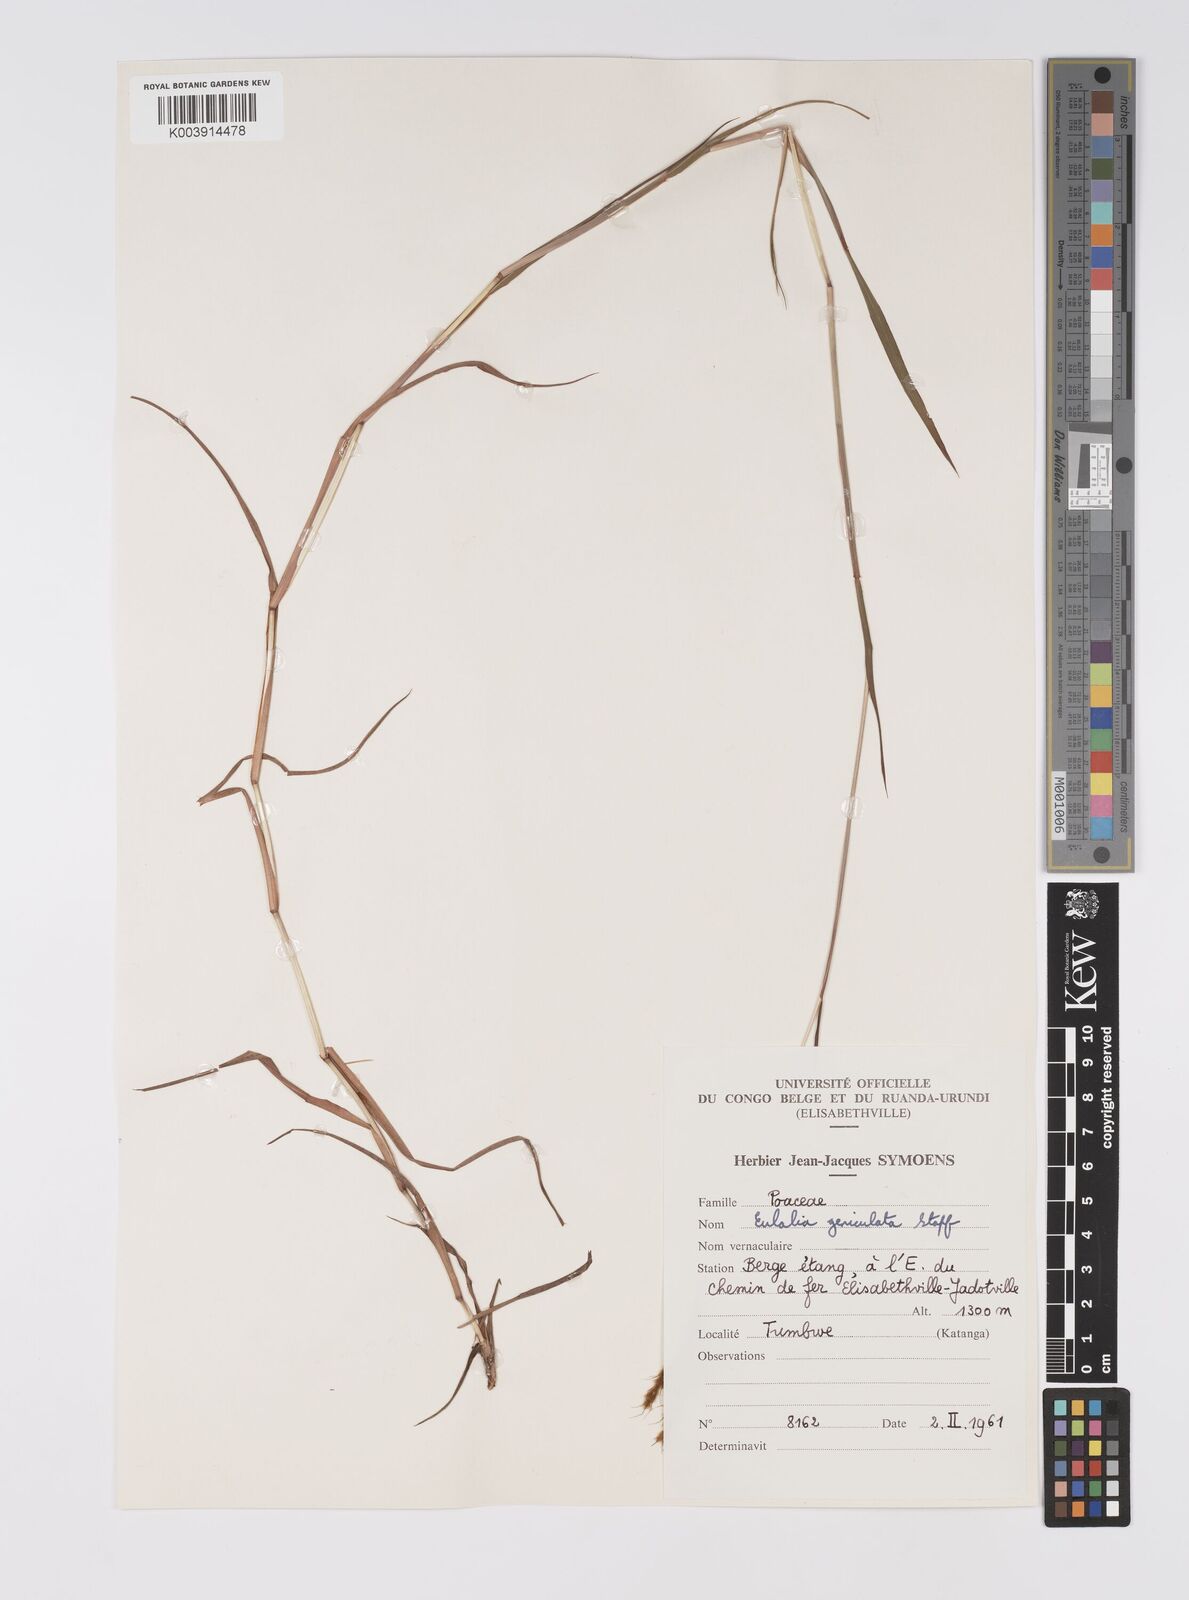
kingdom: Plantae
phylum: Tracheophyta
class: Liliopsida
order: Poales
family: Poaceae
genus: Eulalia
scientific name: Eulalia aurea
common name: Silky browntop
